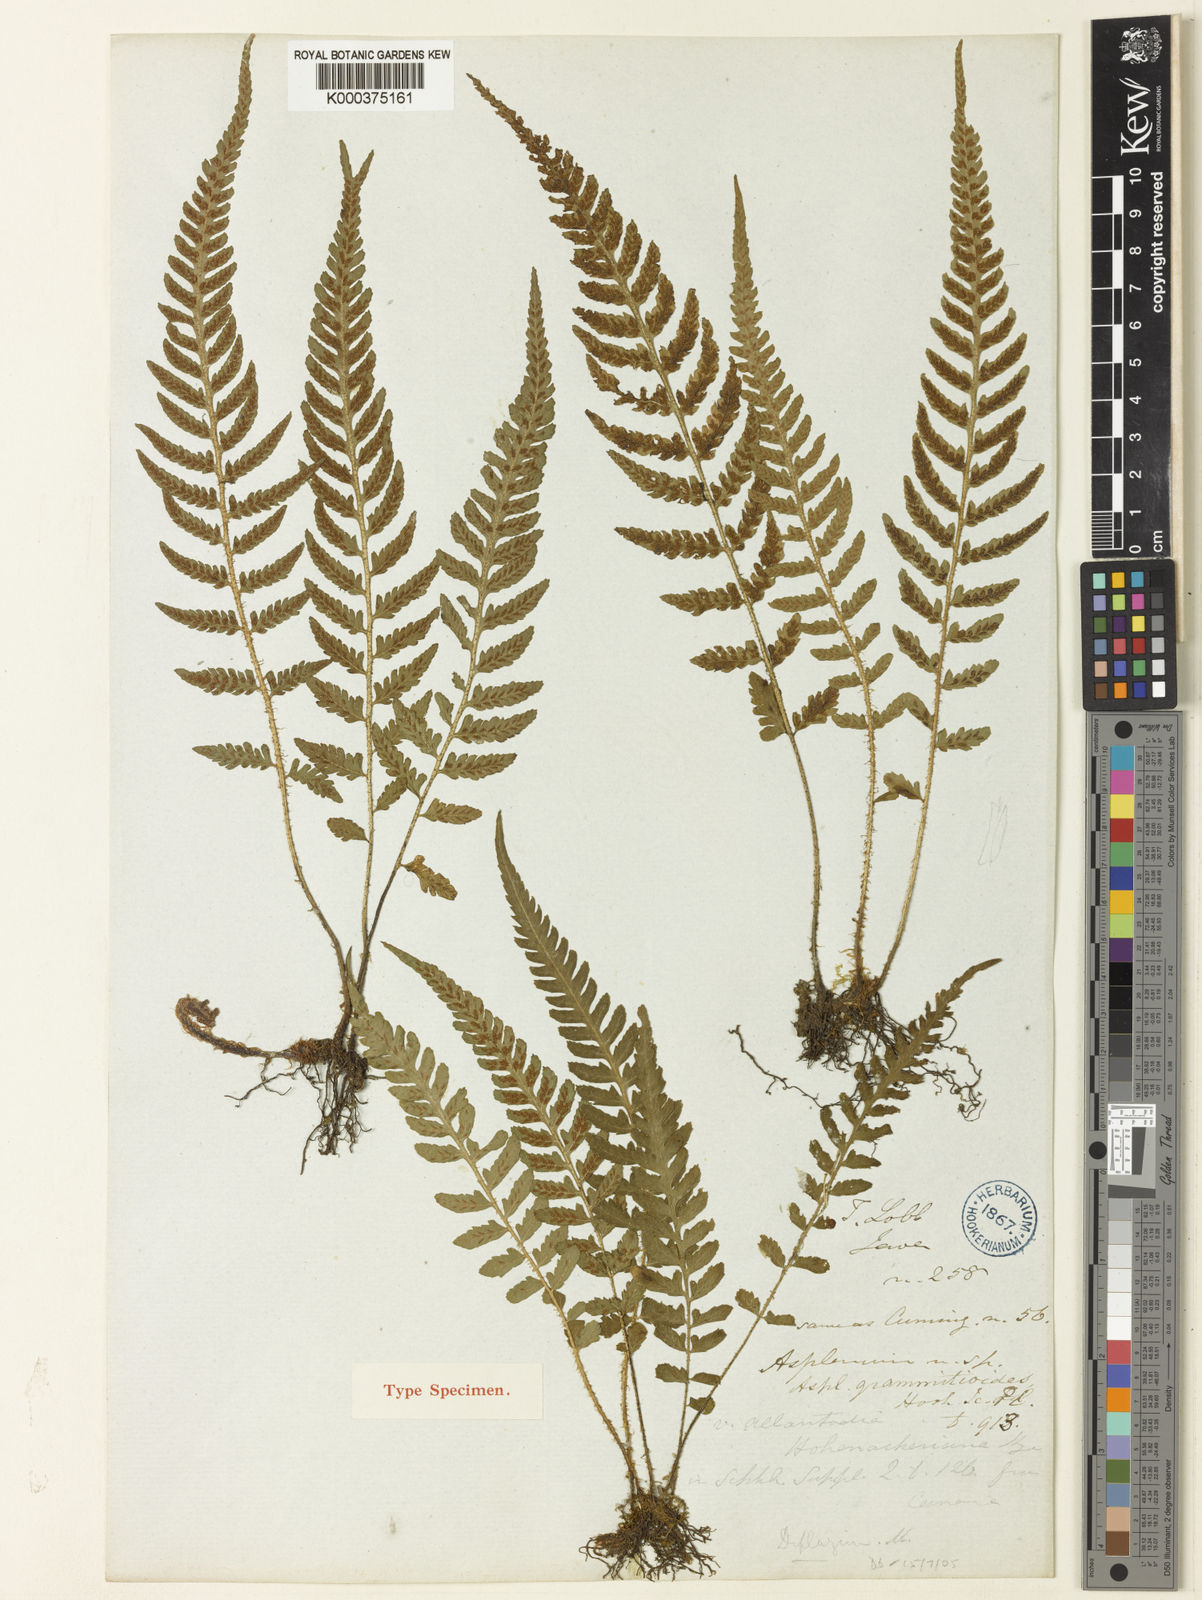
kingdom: Plantae
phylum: Tracheophyta
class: Polypodiopsida
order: Polypodiales
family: Athyriaceae
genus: Deparia
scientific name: Deparia confluens
